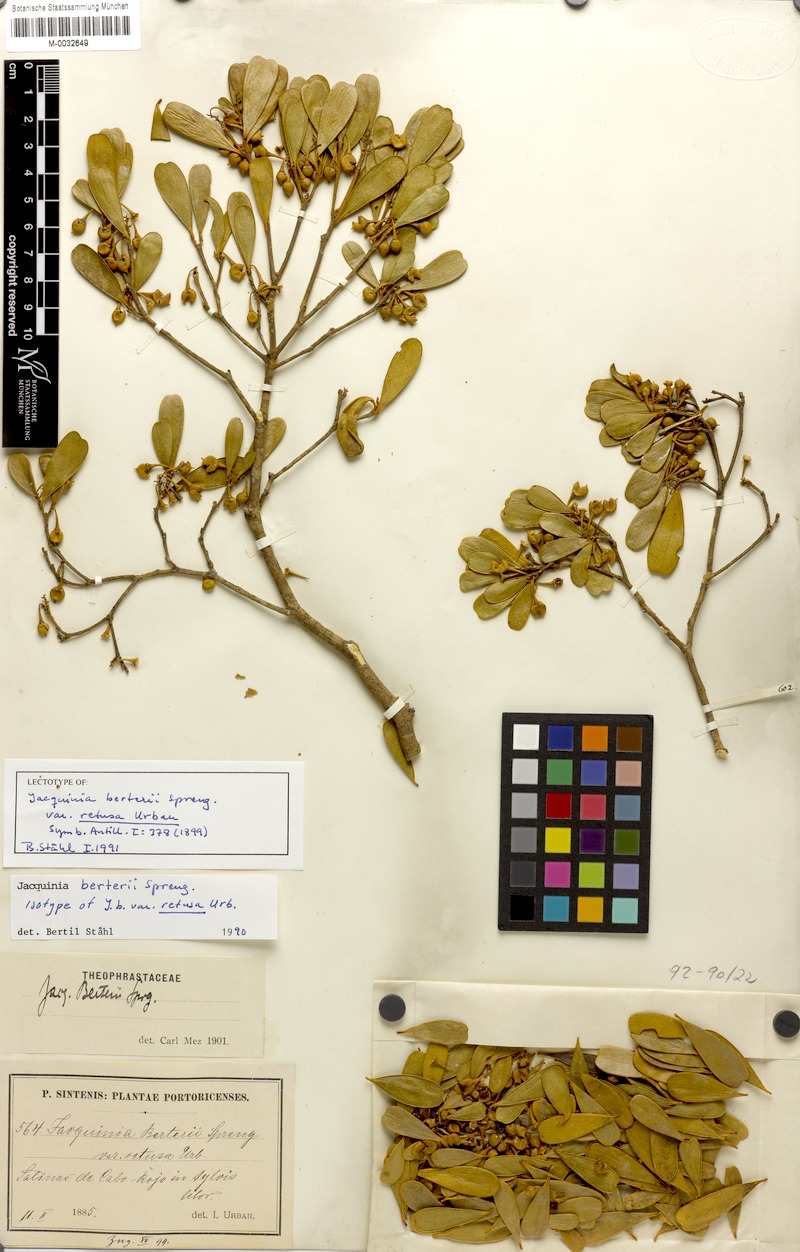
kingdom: Plantae
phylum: Tracheophyta
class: Magnoliopsida
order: Ericales
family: Primulaceae
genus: Jacquinia
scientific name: Jacquinia berteroi
